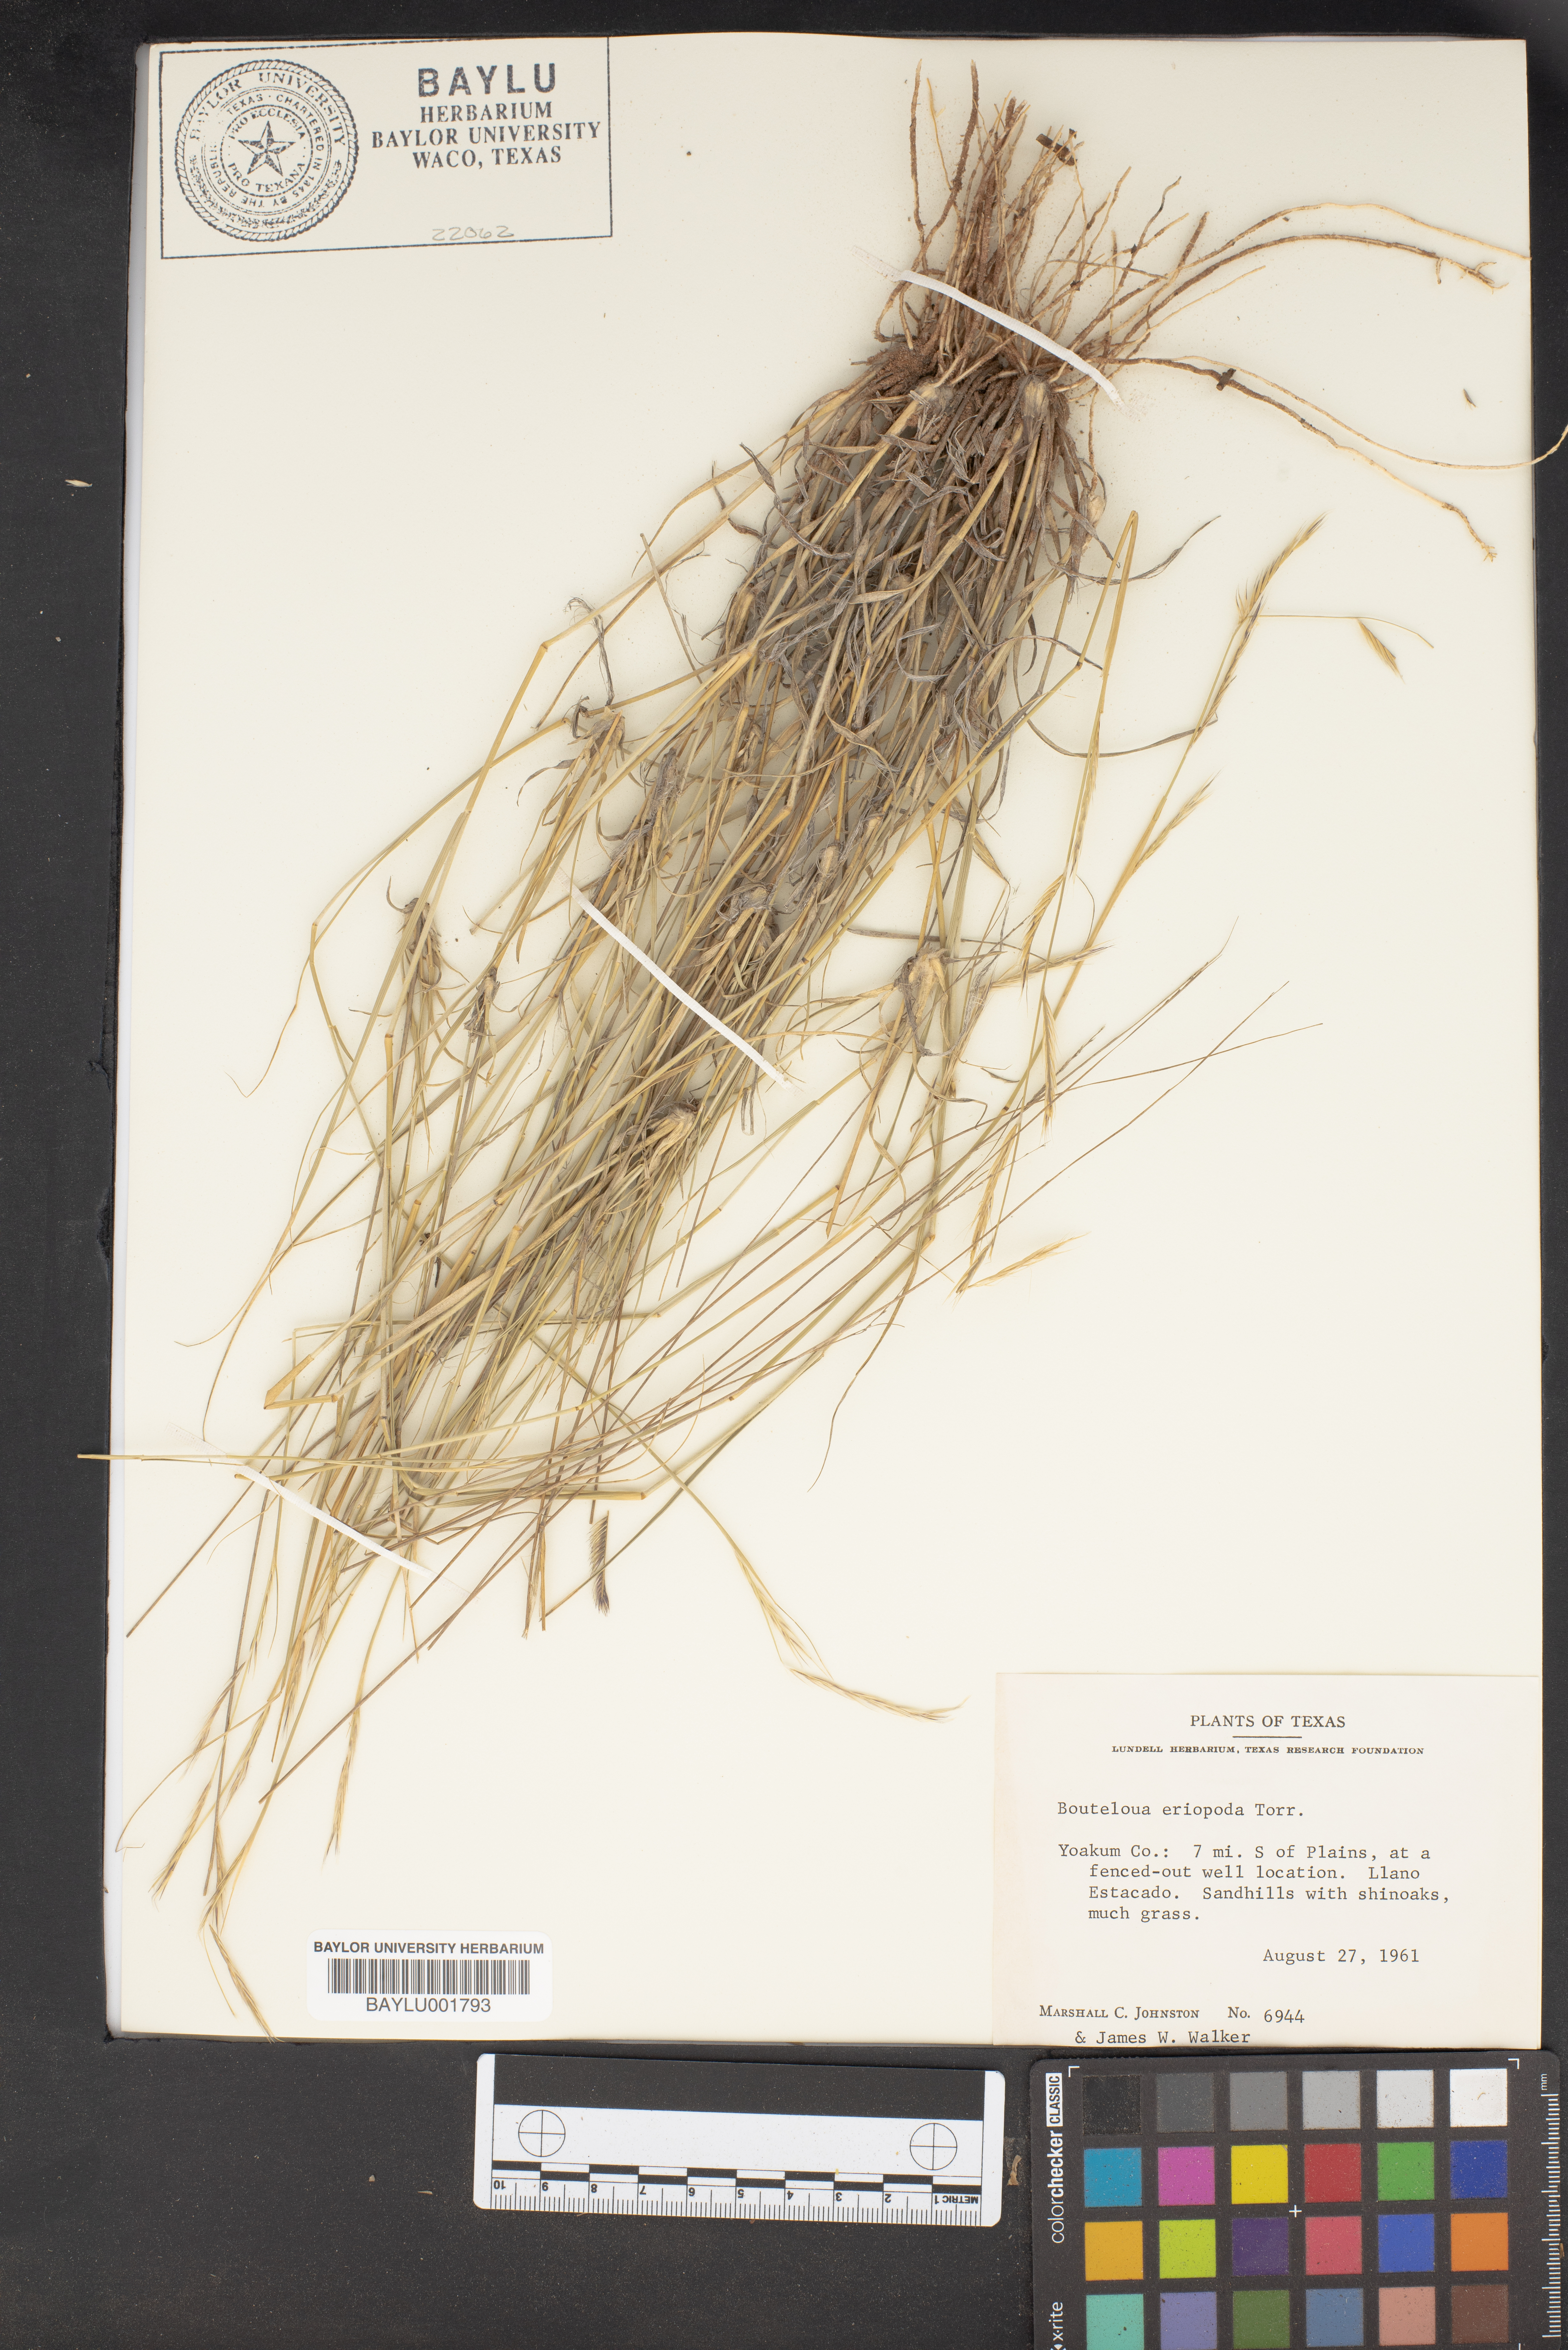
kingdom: Plantae
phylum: Tracheophyta
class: Liliopsida
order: Poales
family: Poaceae
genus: Bouteloua
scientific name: Bouteloua eriopoda
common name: Woolly foot grama
